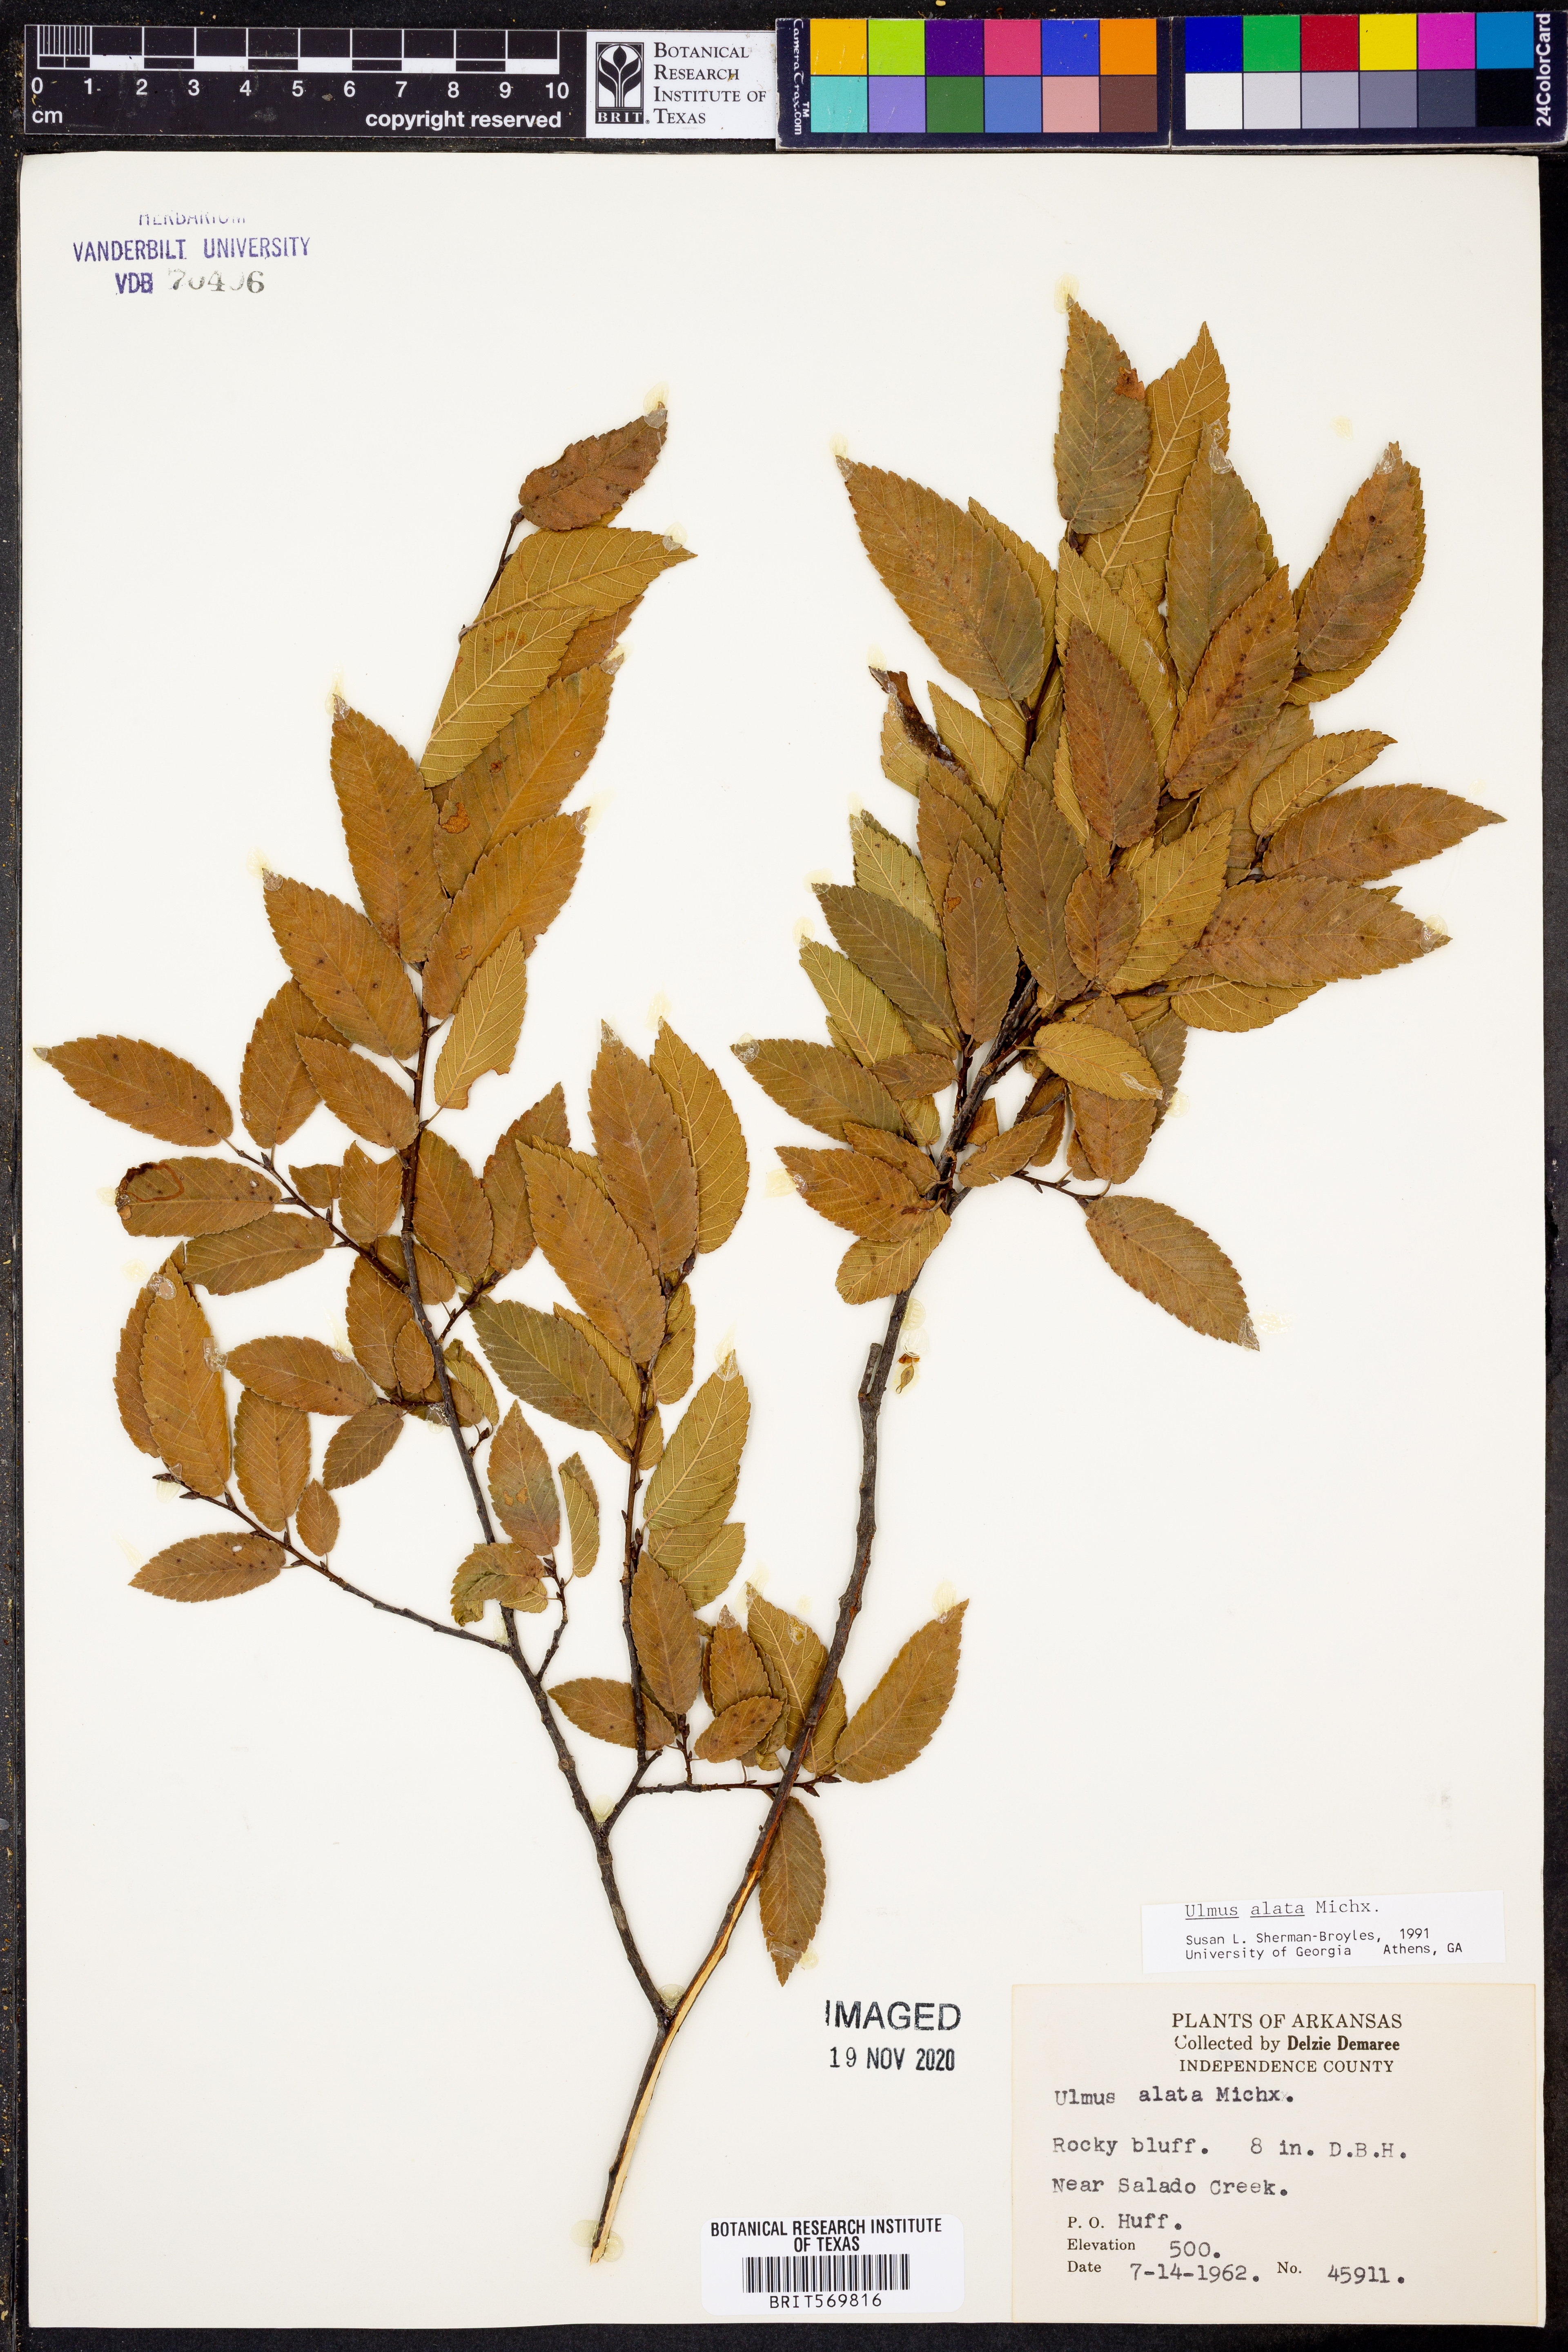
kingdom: Plantae
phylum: Tracheophyta
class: Magnoliopsida
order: Rosales
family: Ulmaceae
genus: Ulmus
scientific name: Ulmus alata
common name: Winged elm
